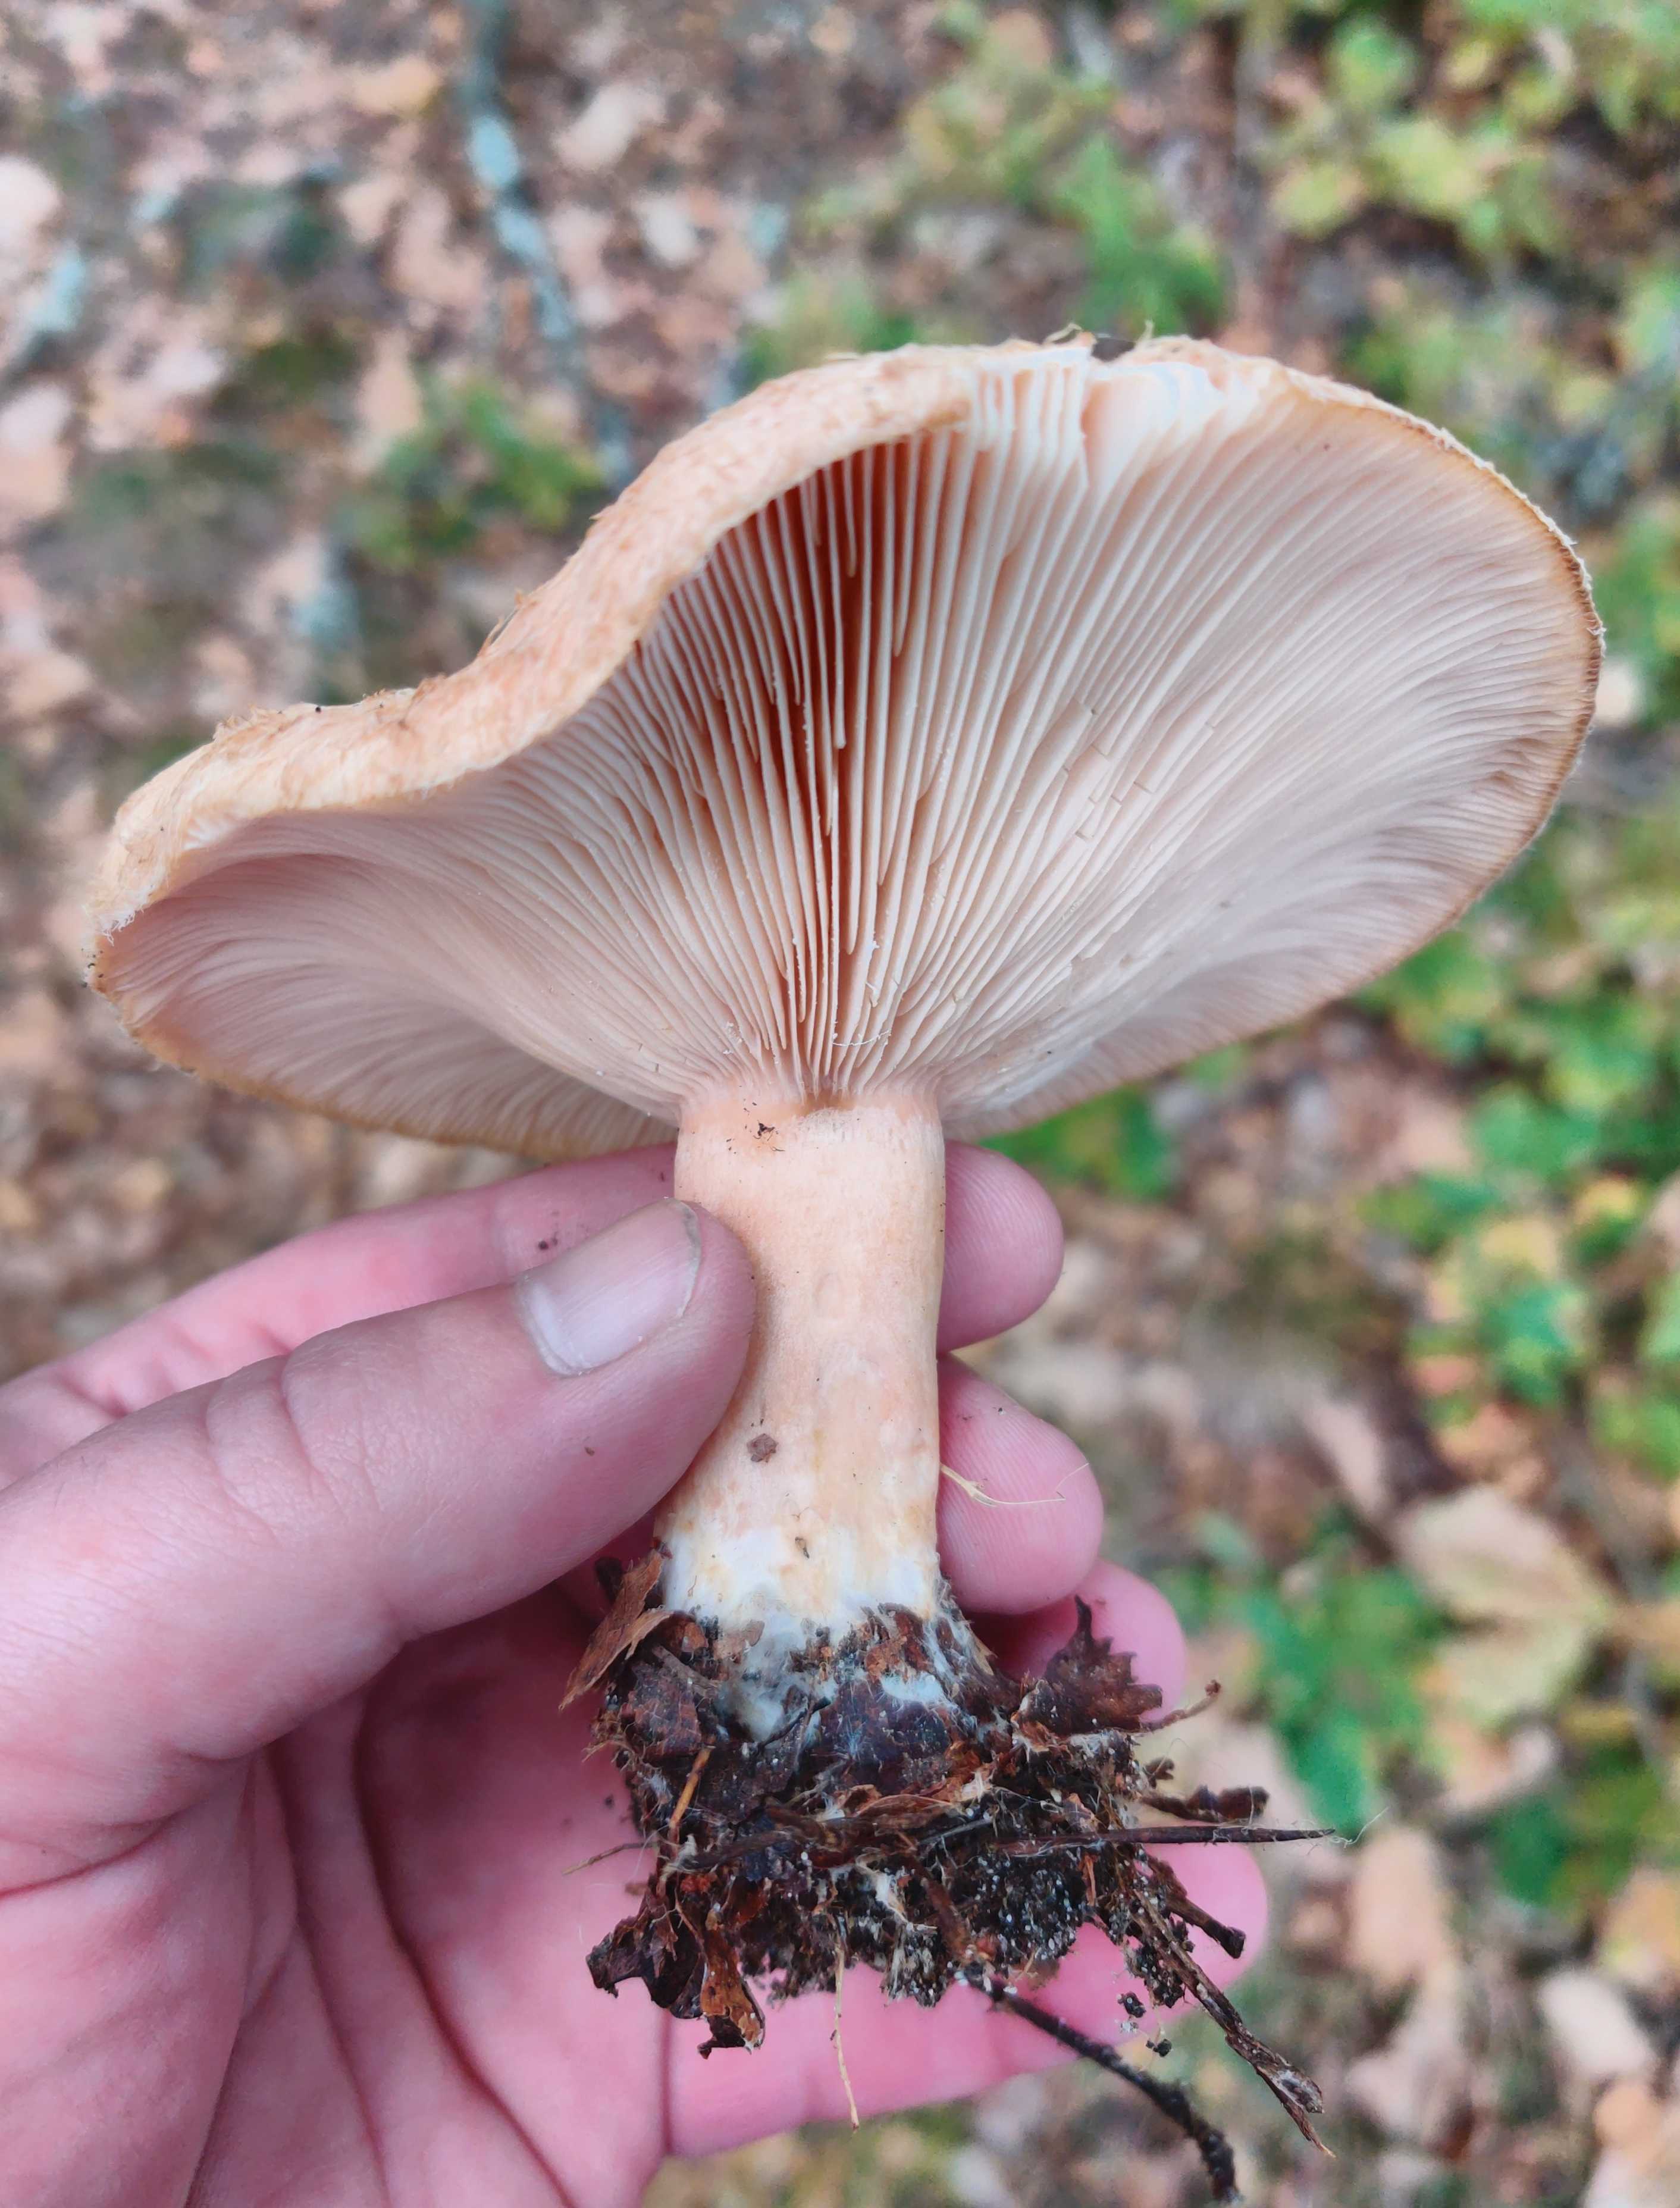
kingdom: Fungi
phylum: Basidiomycota
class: Agaricomycetes
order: Russulales
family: Russulaceae
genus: Lactarius
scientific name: Lactarius
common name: mælkehat
